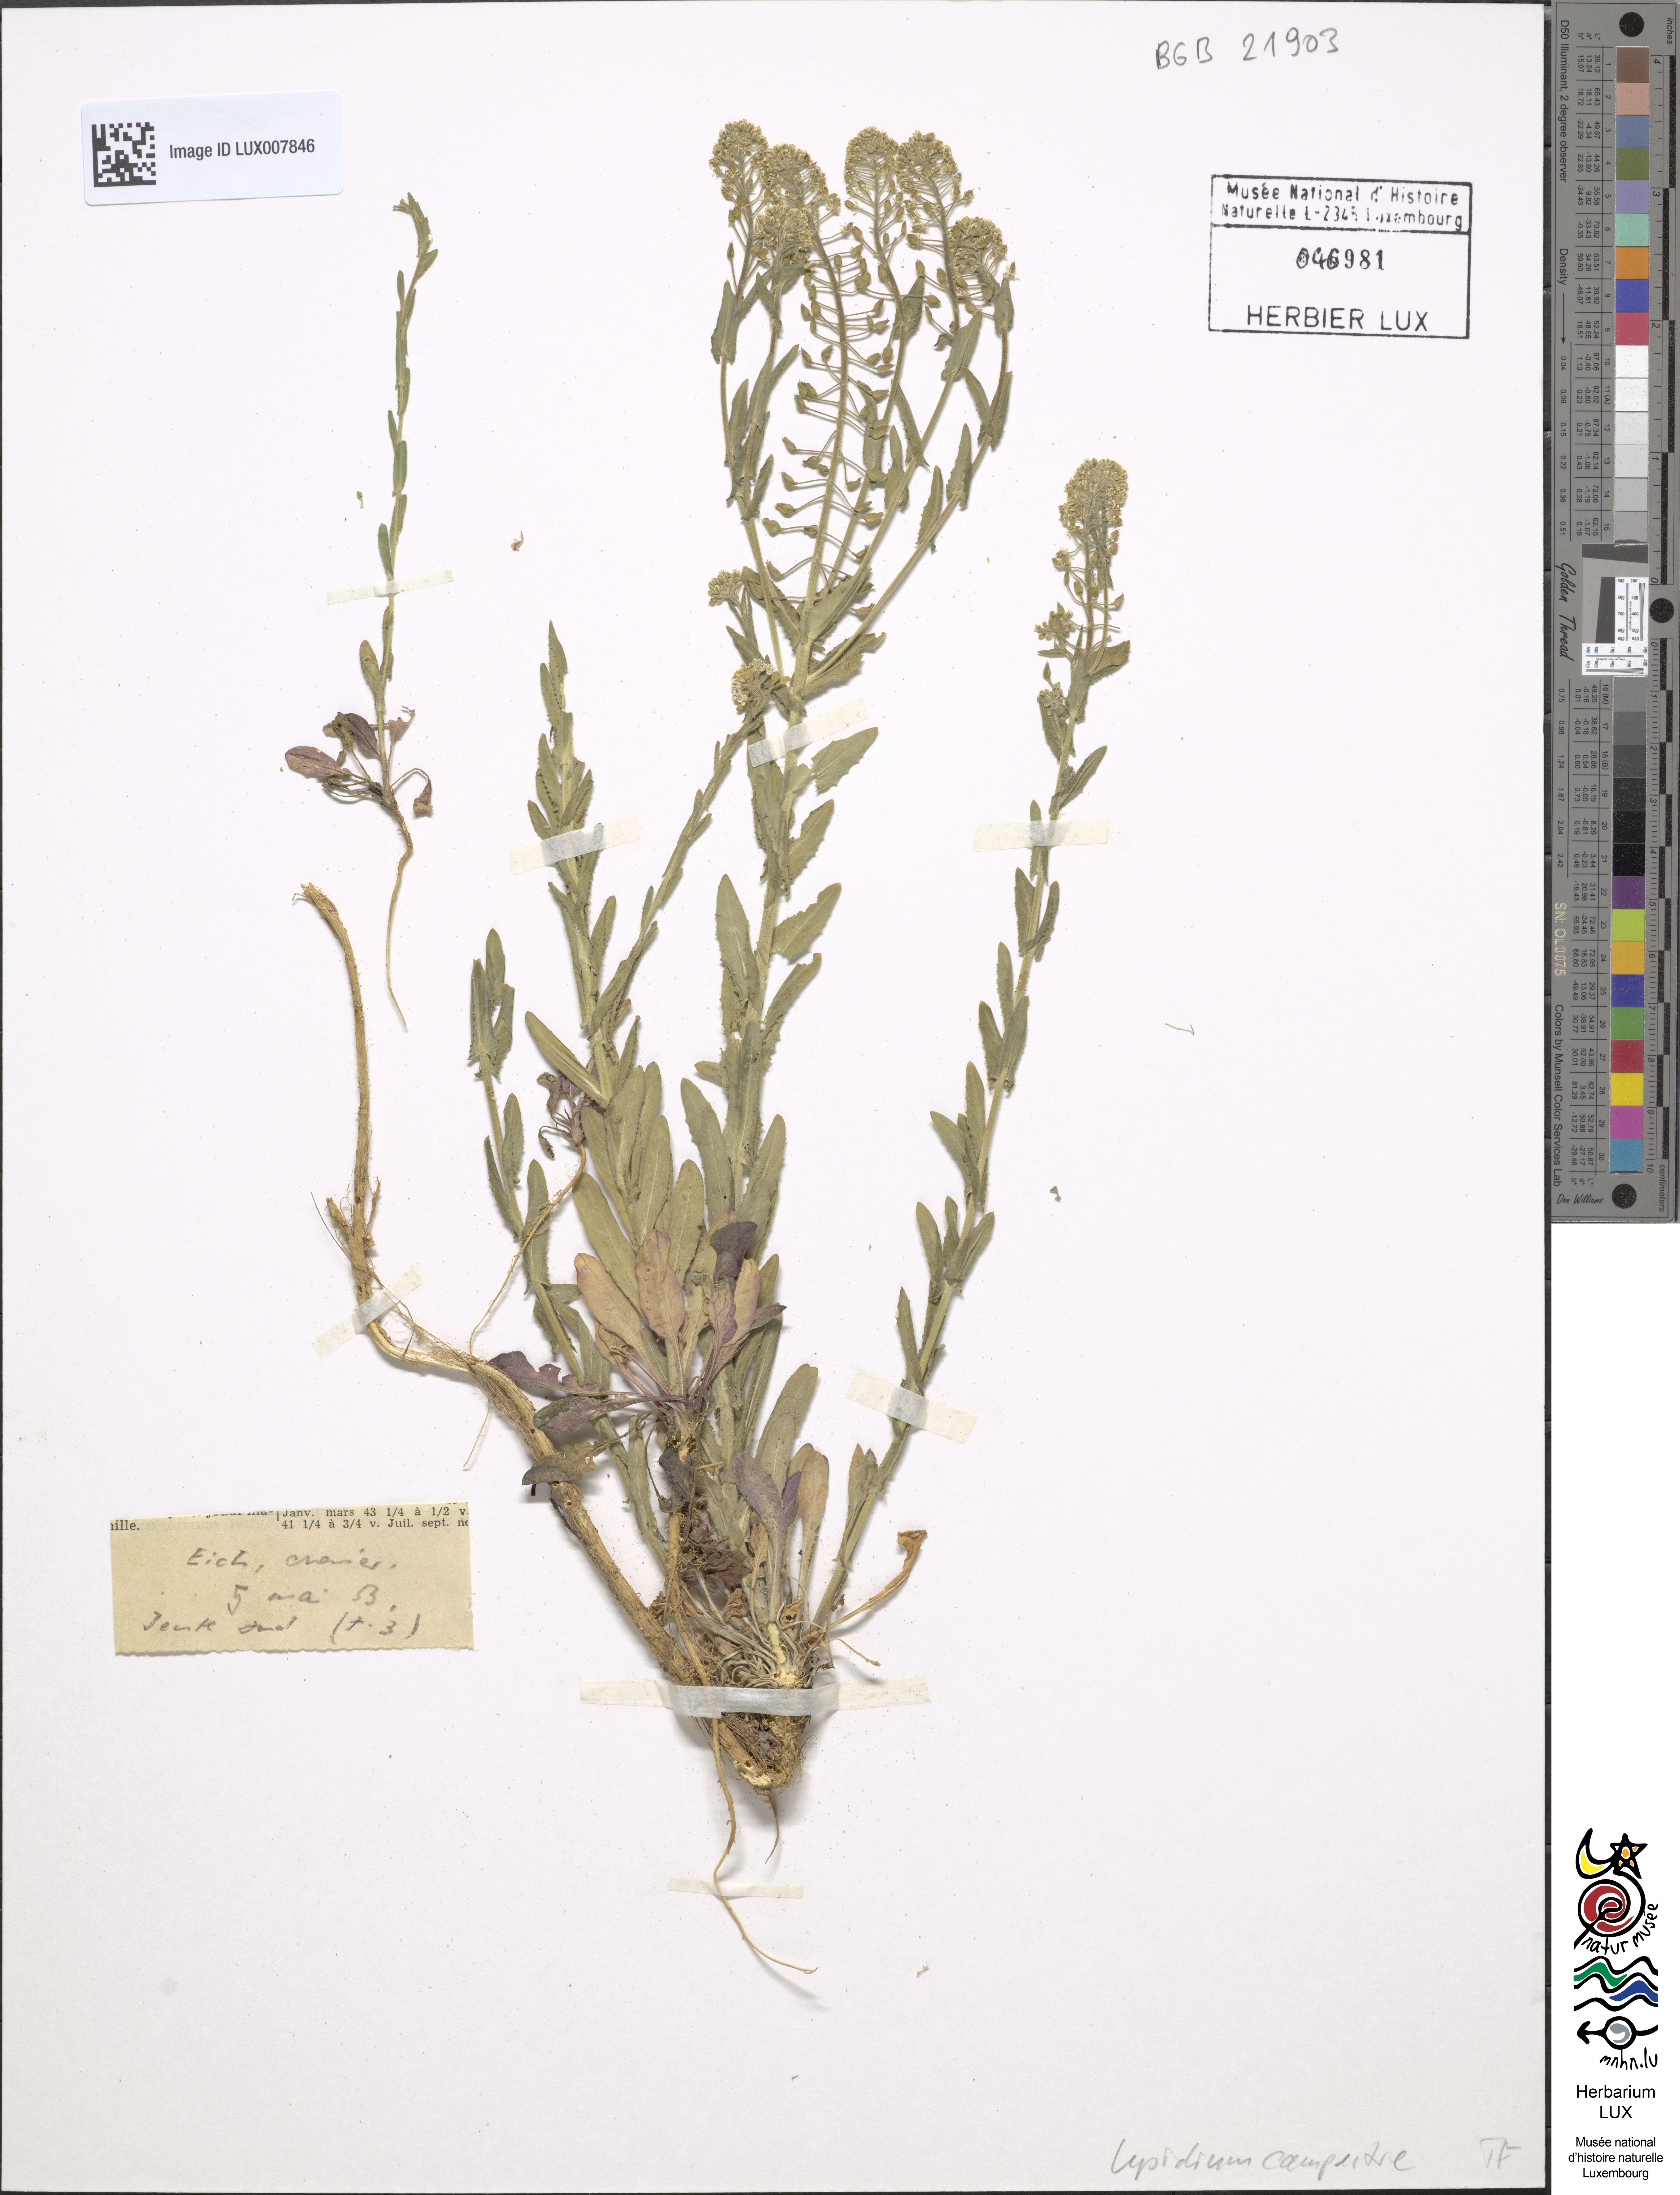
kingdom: Plantae
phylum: Tracheophyta
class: Magnoliopsida
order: Brassicales
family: Brassicaceae
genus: Lepidium
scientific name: Lepidium campestre
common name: Field pepperwort
